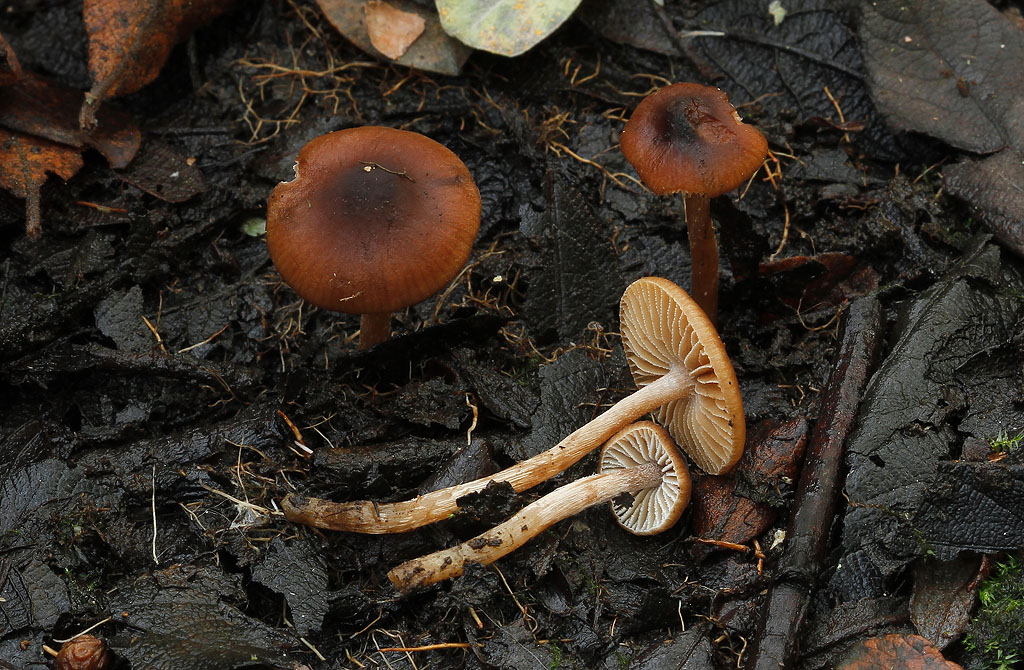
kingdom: Fungi
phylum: Basidiomycota
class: Agaricomycetes
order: Agaricales
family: Hymenogastraceae
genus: Naucoria
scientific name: Naucoria salicis
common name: pile-knaphat
